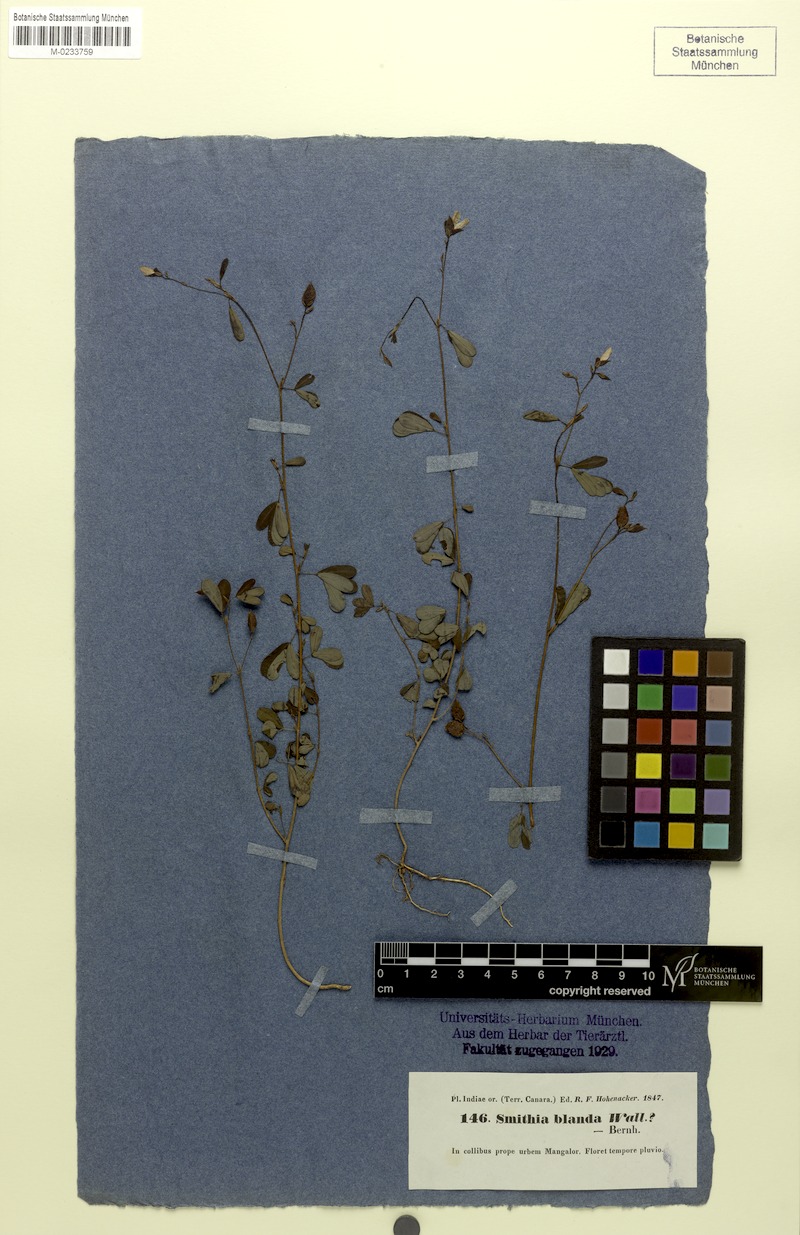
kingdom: Plantae
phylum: Tracheophyta
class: Magnoliopsida
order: Fabales
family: Fabaceae
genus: Smithia
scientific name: Smithia salsuginea
